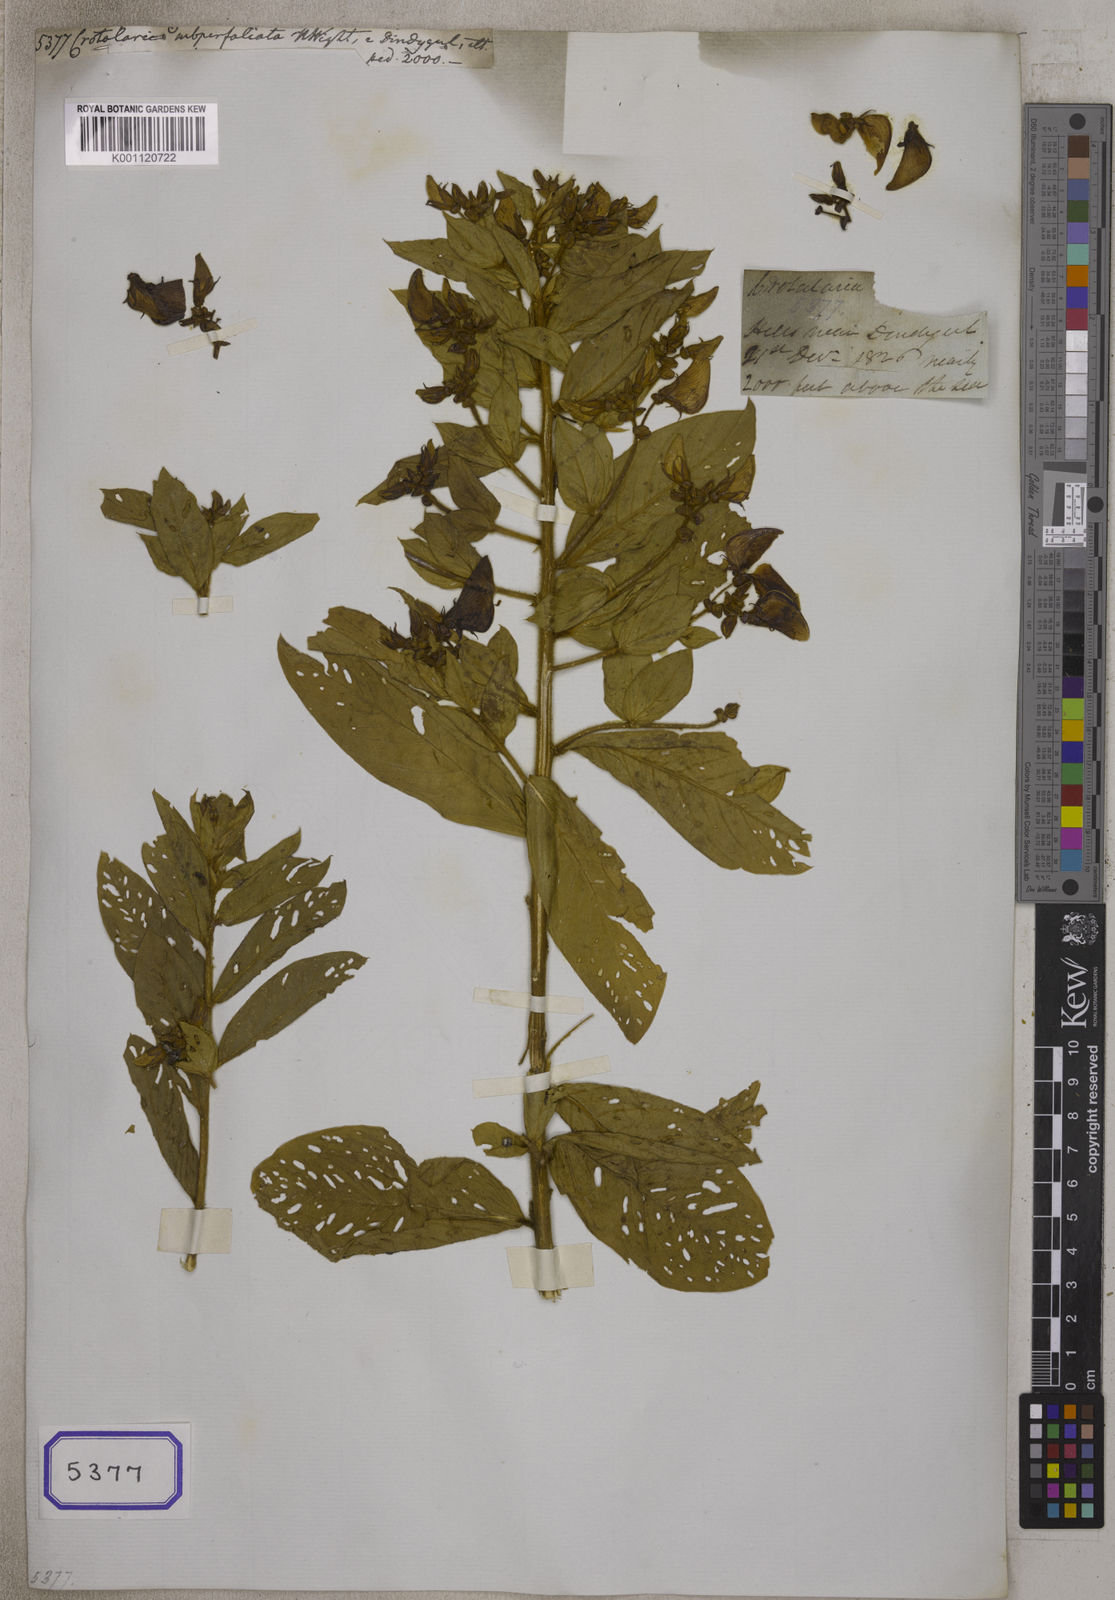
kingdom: Plantae
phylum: Tracheophyta
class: Magnoliopsida
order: Fabales
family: Fabaceae
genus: Crotalaria
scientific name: Crotalaria subperfoliata
